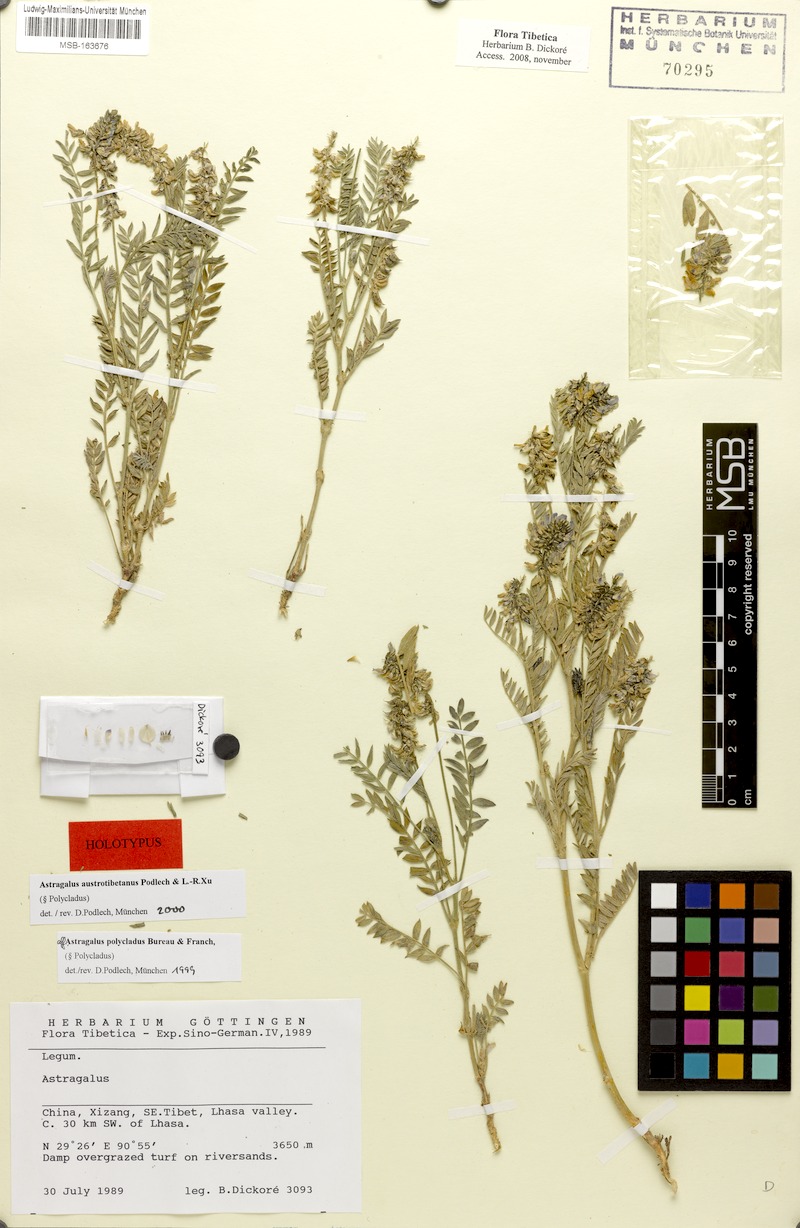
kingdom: Plantae
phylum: Tracheophyta
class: Magnoliopsida
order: Fabales
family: Fabaceae
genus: Astragalus
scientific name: Astragalus austrotibetanus
